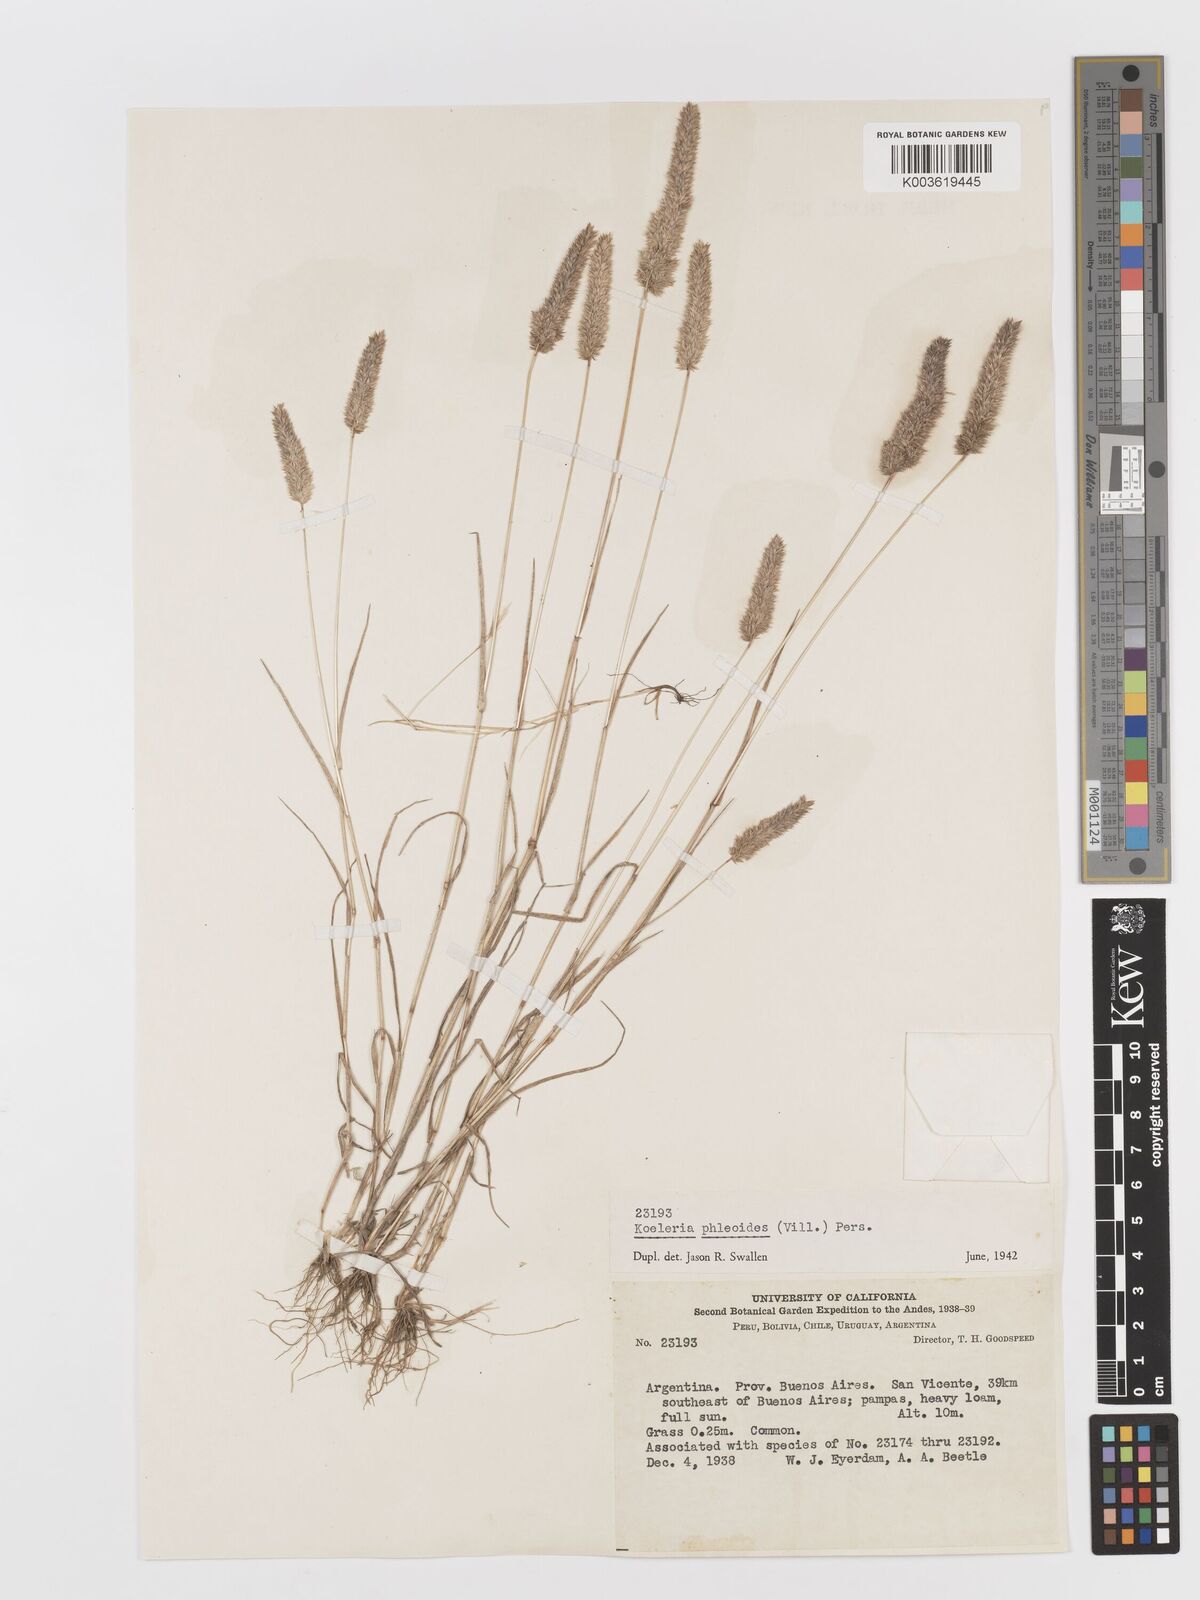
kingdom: Plantae
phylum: Tracheophyta
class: Liliopsida
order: Poales
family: Poaceae
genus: Rostraria
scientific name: Rostraria cristata
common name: Mediterranean hair-grass
